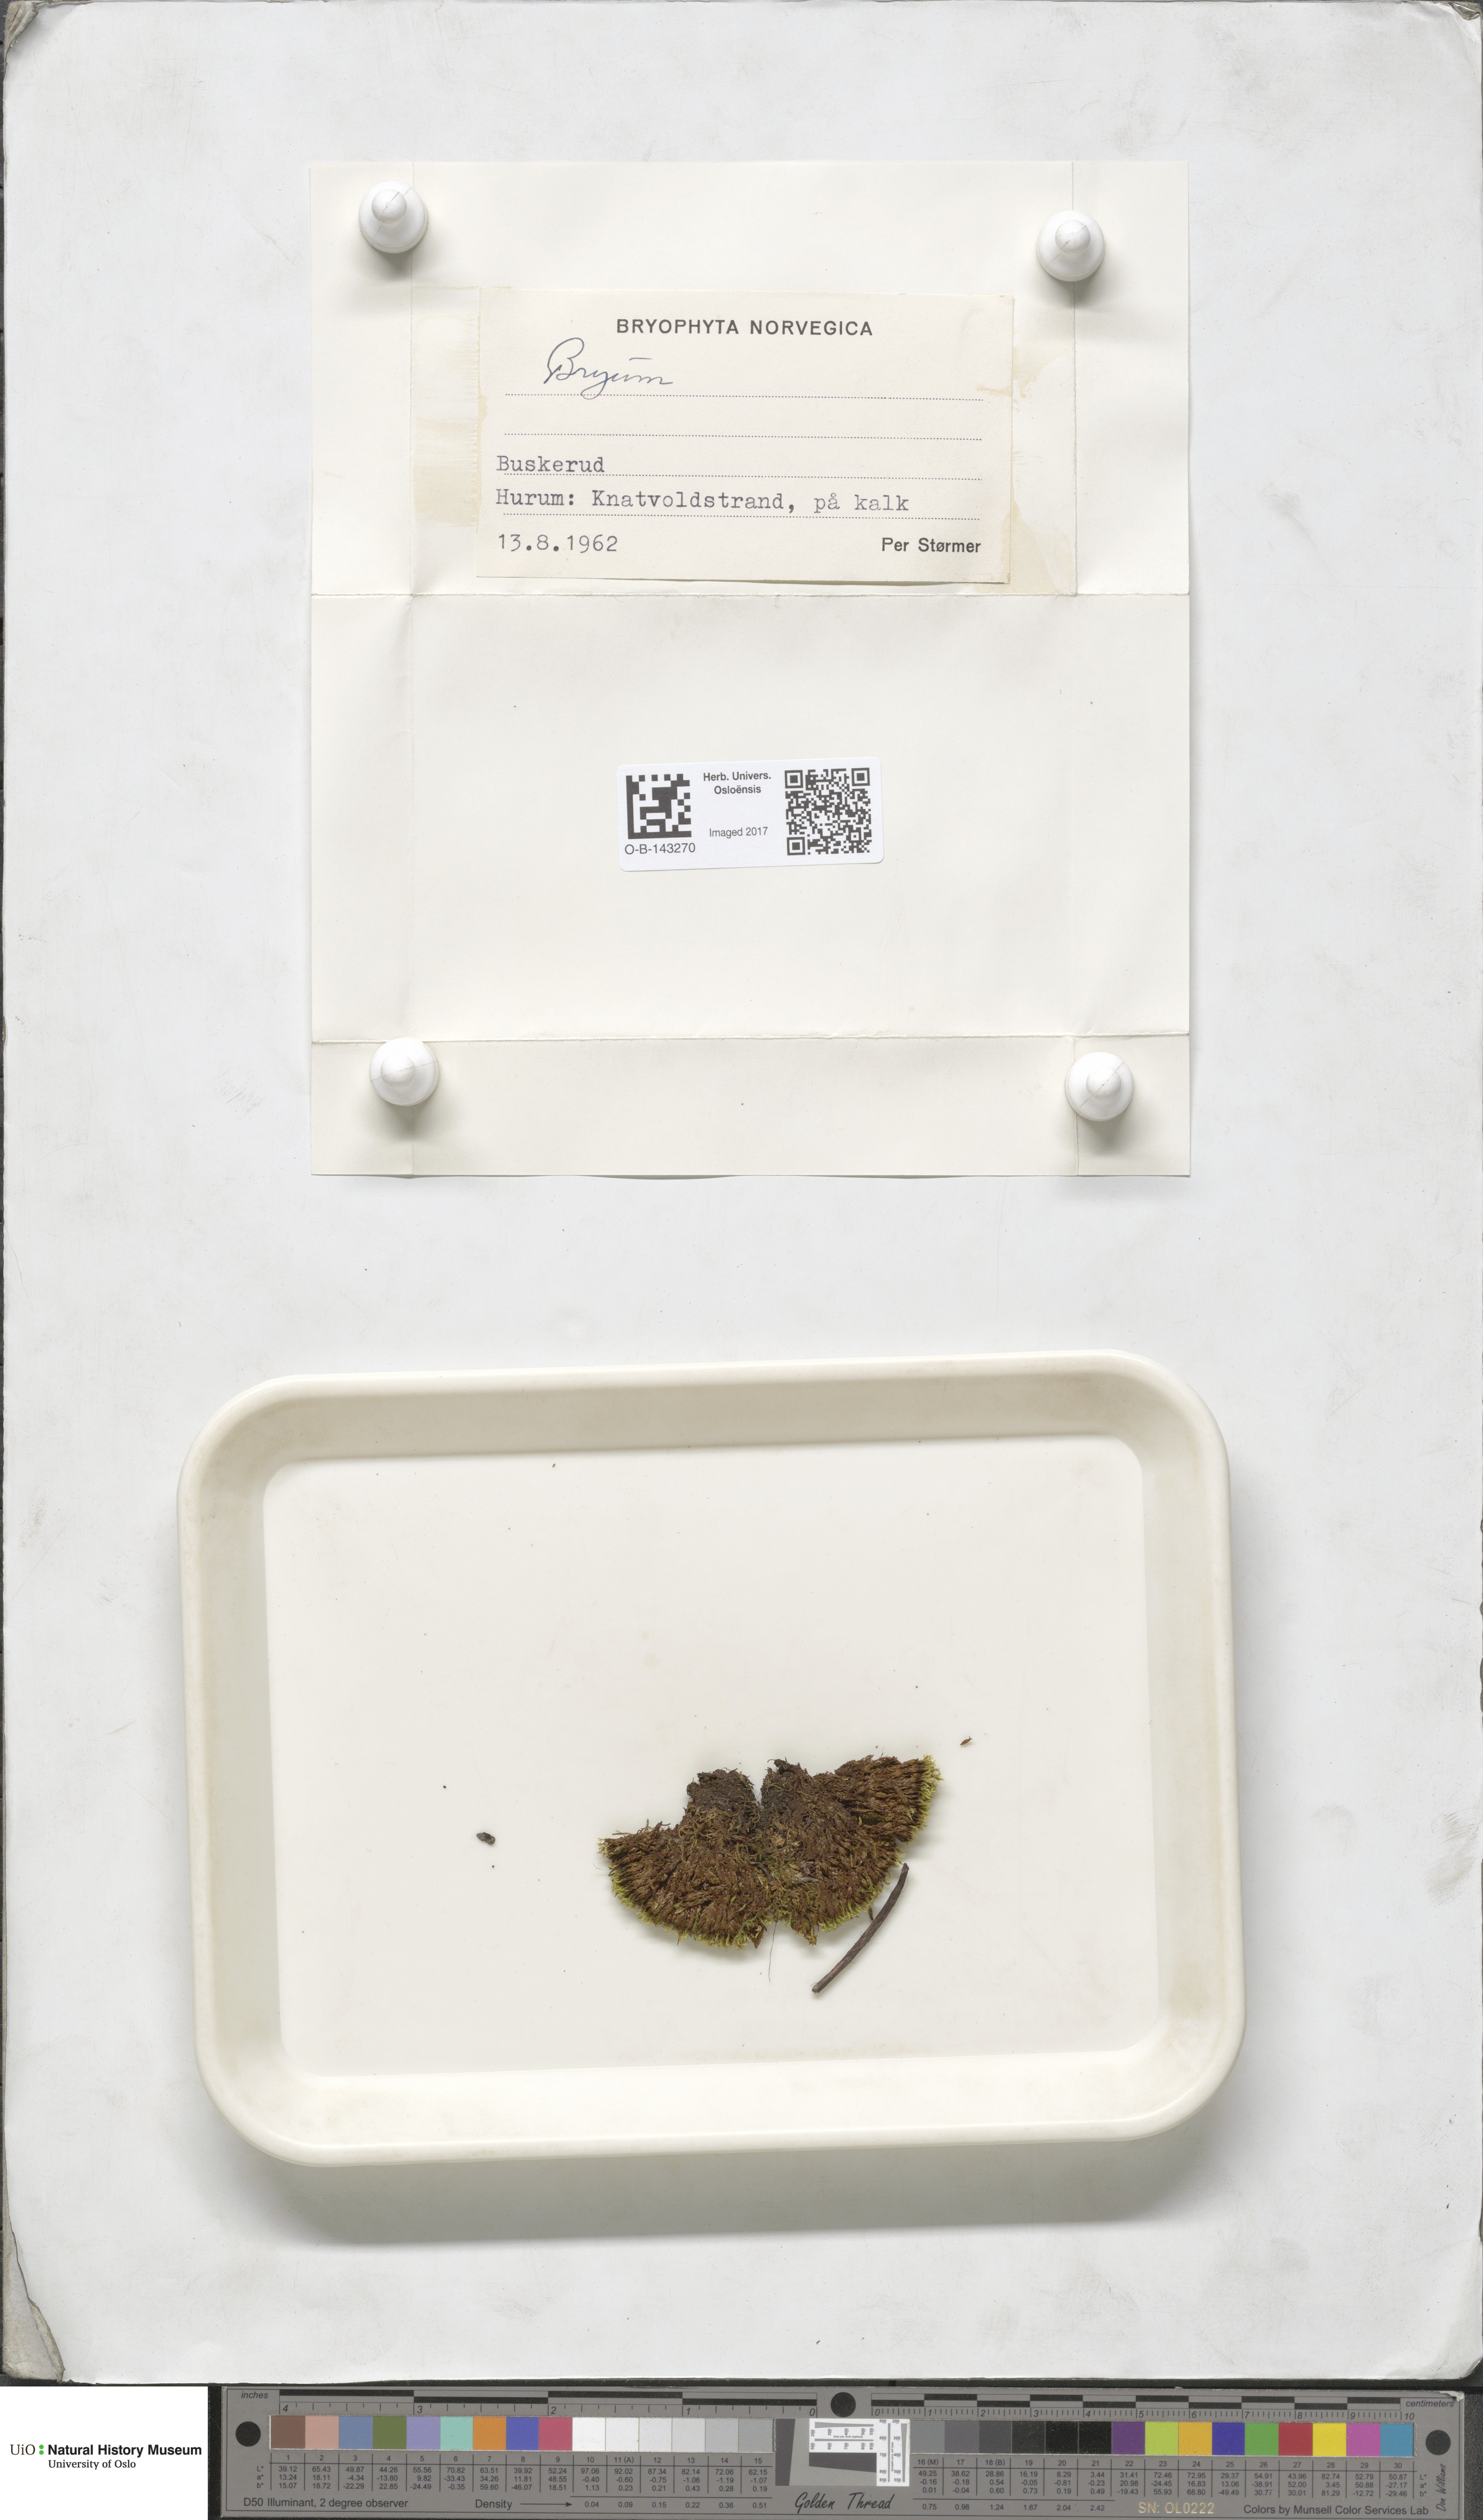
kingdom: Plantae
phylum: Bryophyta
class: Bryopsida
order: Bryales
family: Bryaceae
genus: Bryum
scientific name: Bryum
